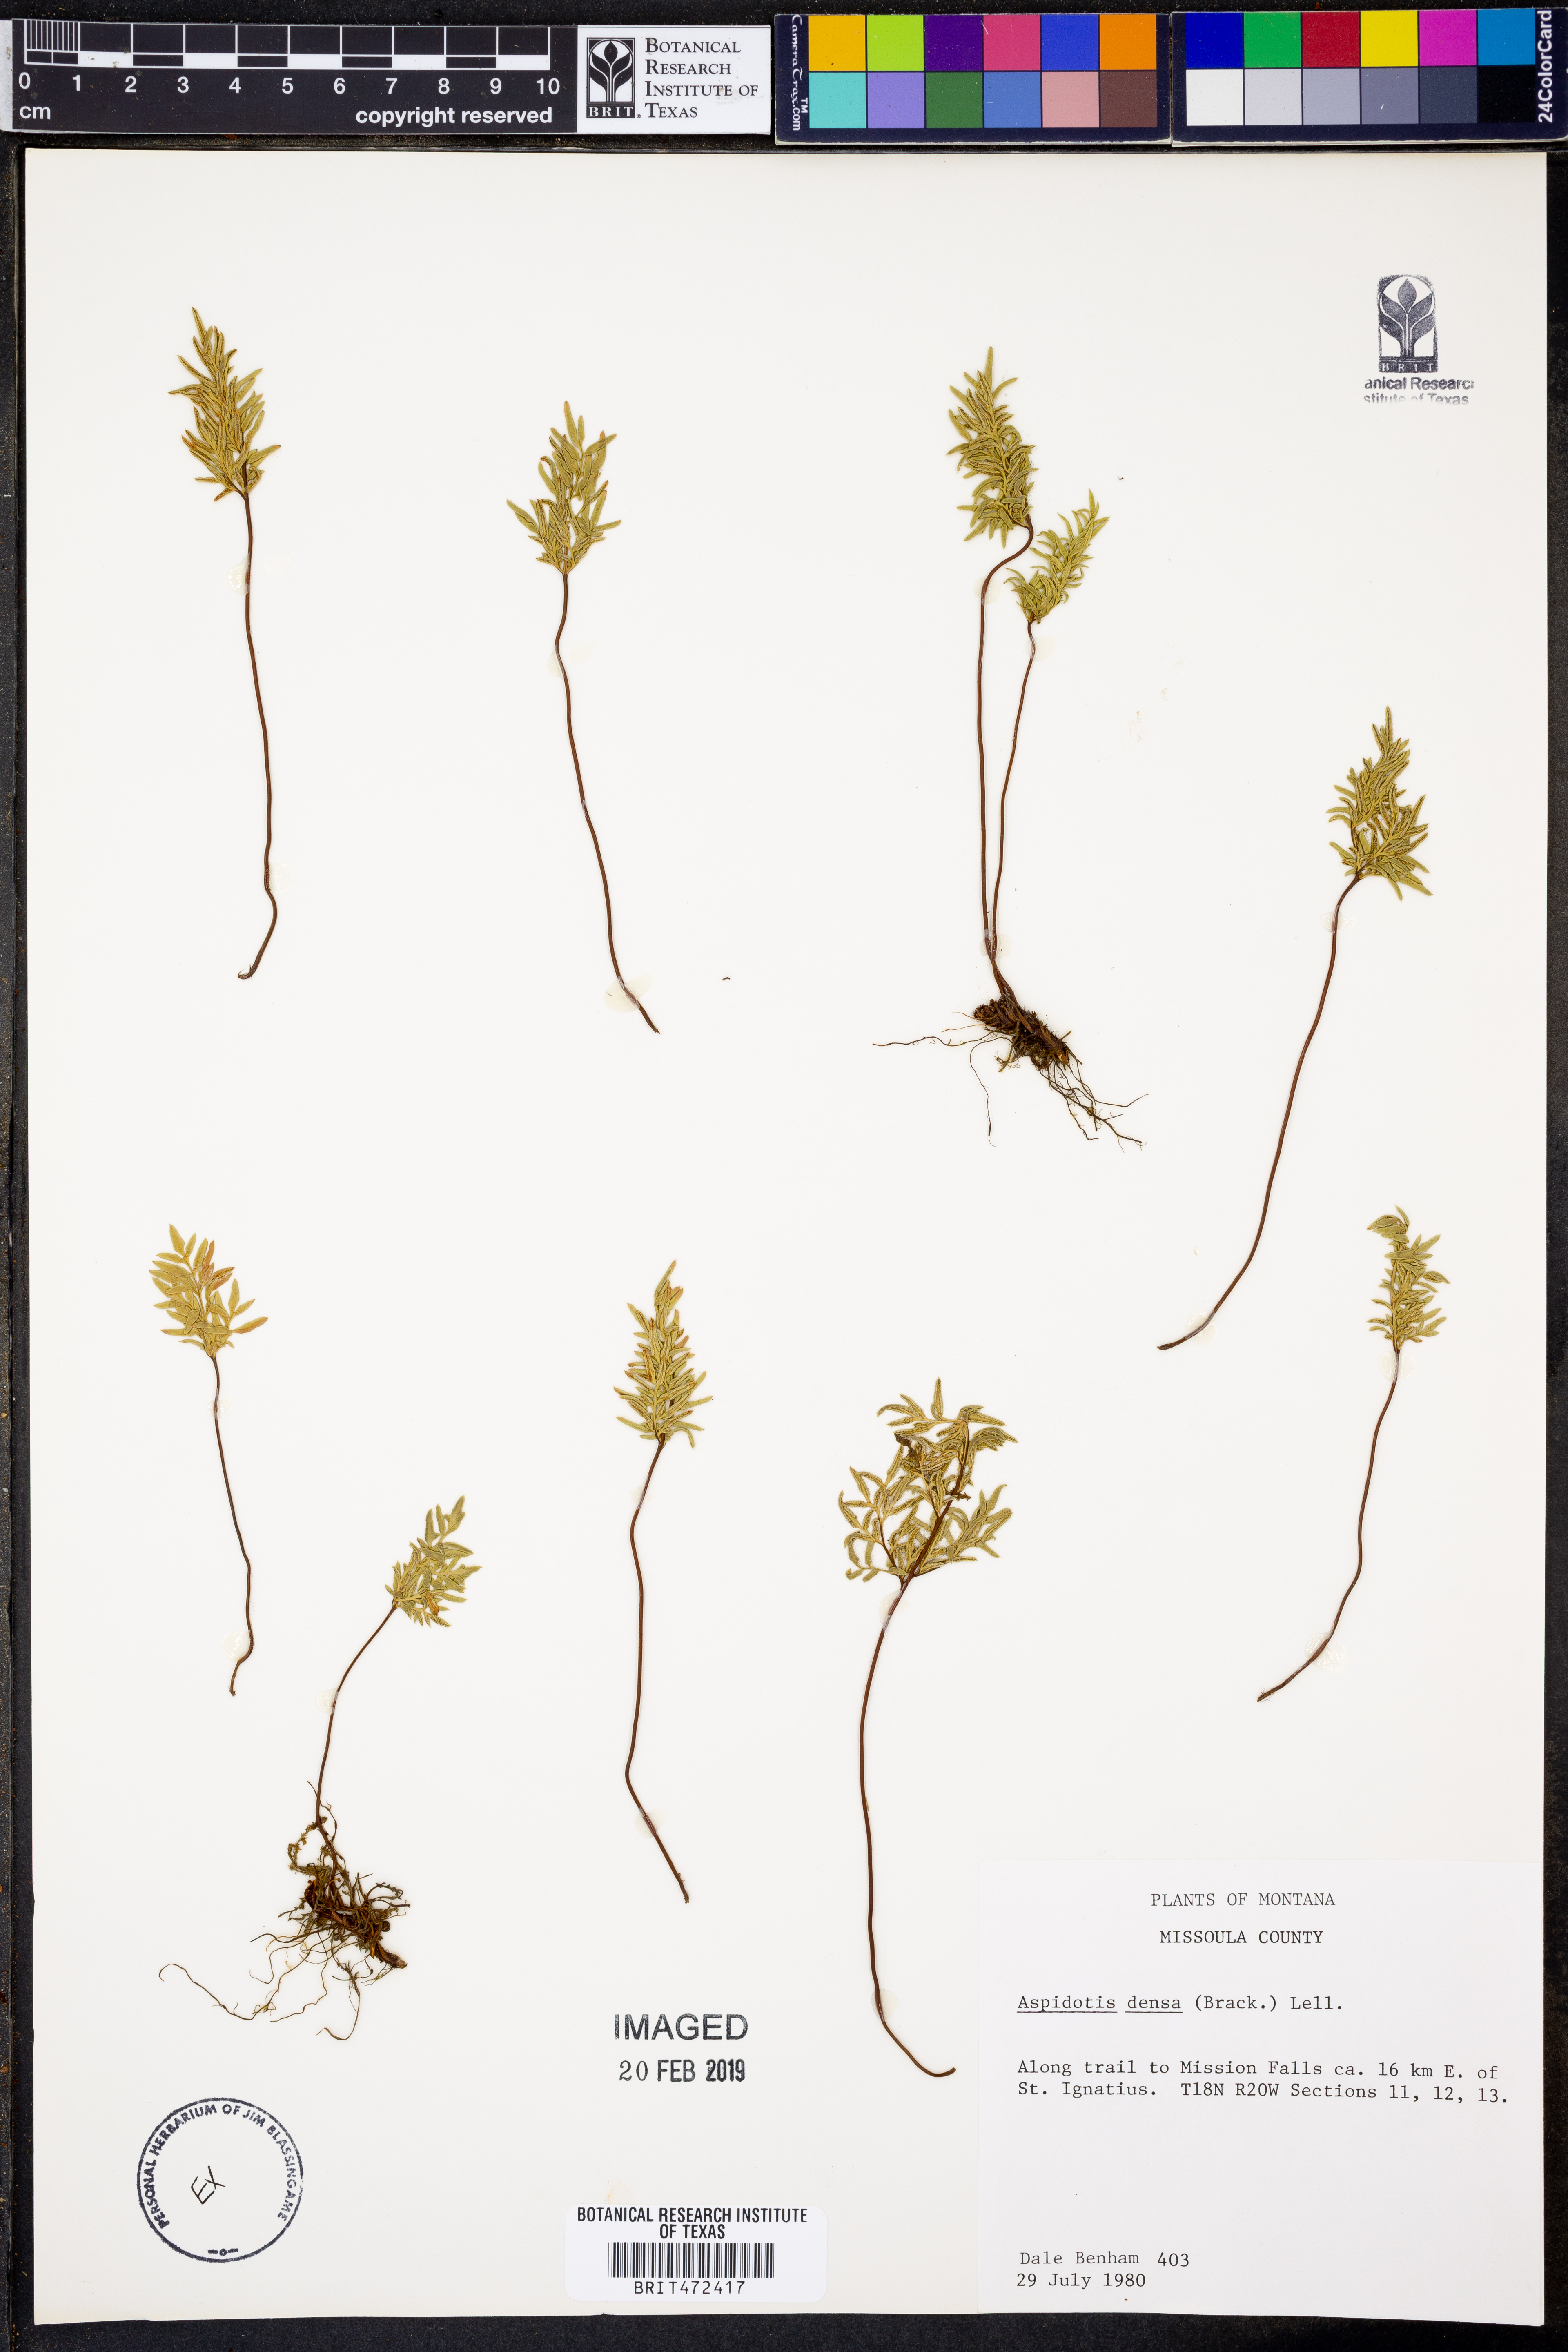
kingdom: Plantae
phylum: Tracheophyta
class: Polypodiopsida
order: Polypodiales
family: Pteridaceae
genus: Aspidotis
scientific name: Aspidotis densa
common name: Indian's dream
